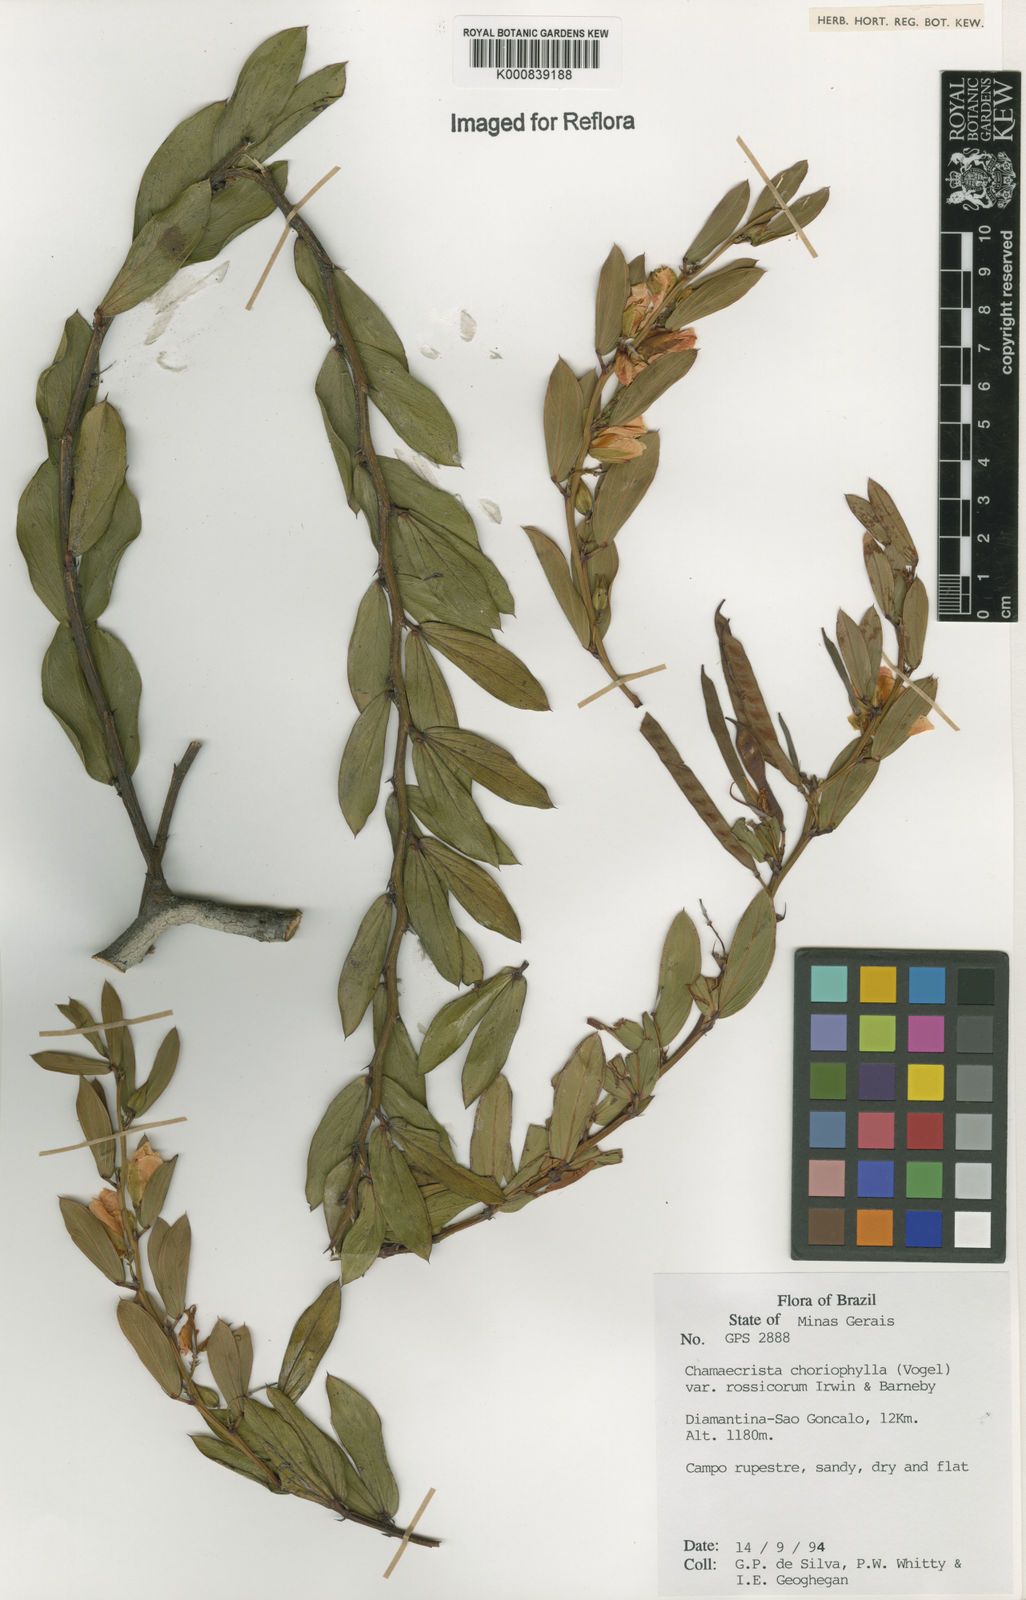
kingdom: Plantae
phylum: Tracheophyta
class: Magnoliopsida
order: Fabales
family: Fabaceae
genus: Chamaecrista
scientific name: Chamaecrista rossicorum
